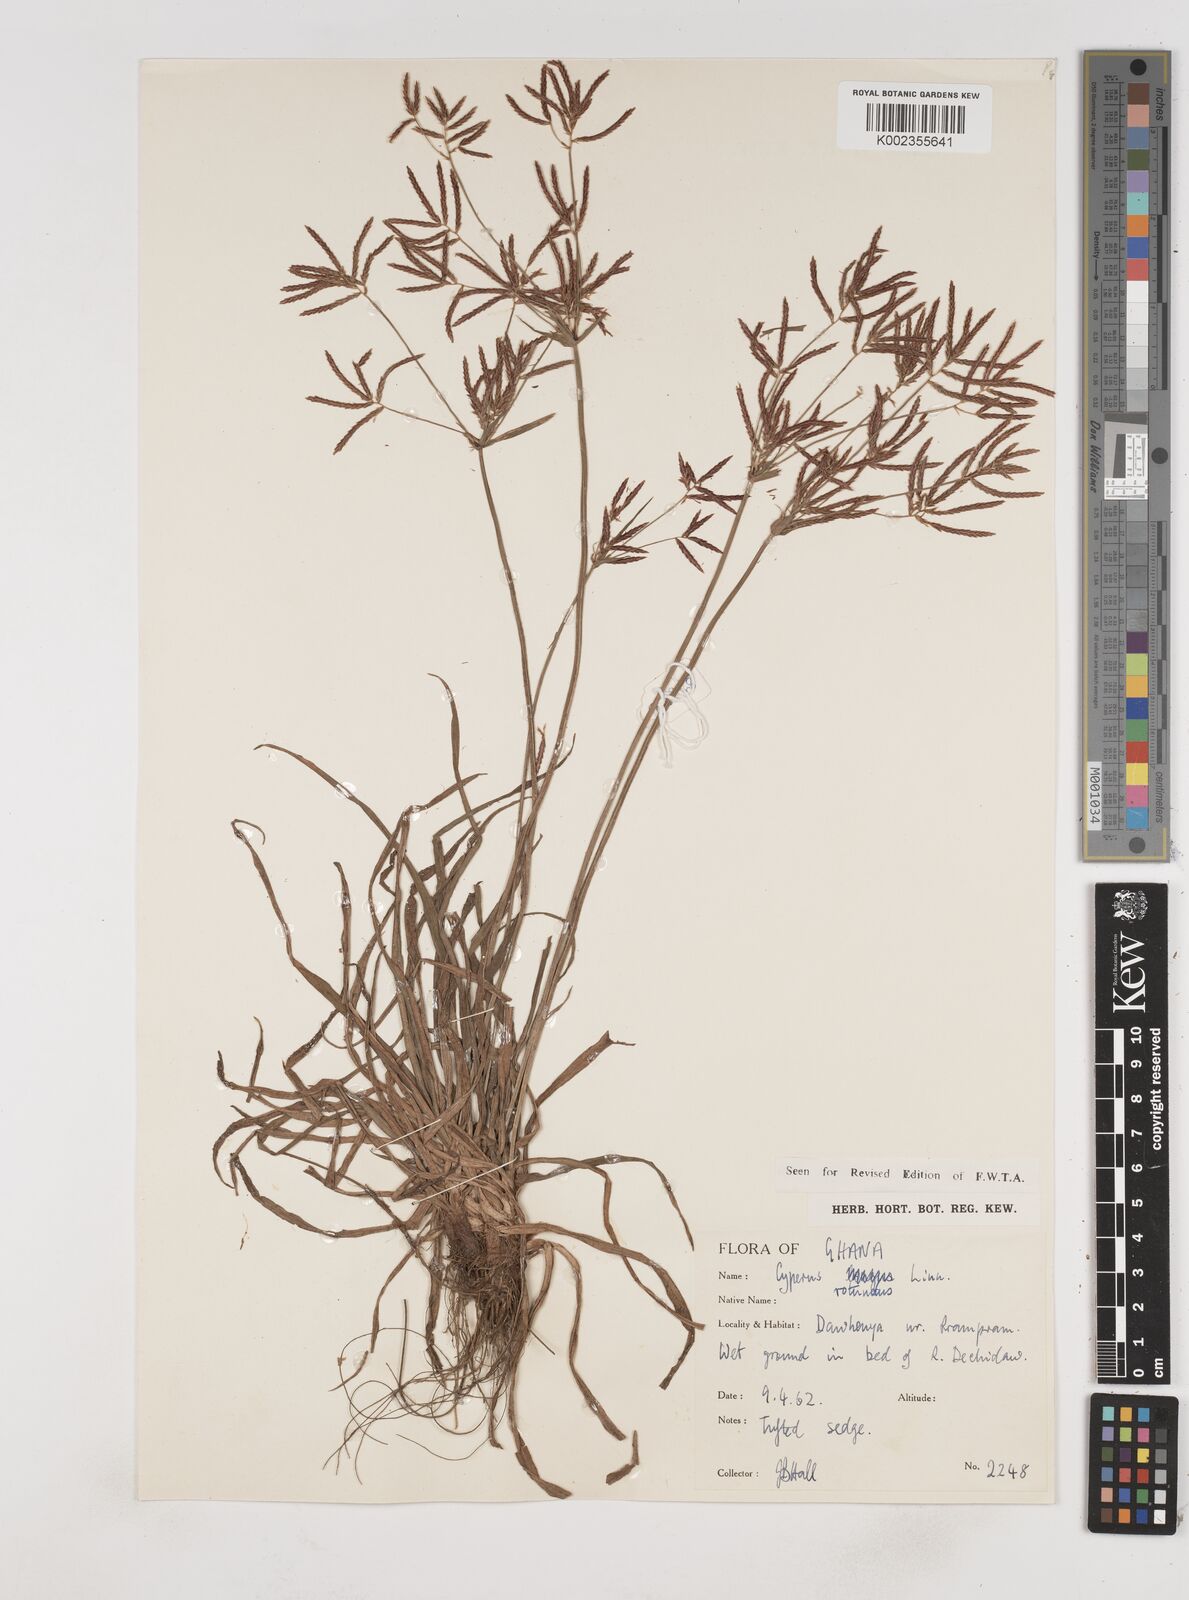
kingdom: Plantae
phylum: Tracheophyta
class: Liliopsida
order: Poales
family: Cyperaceae
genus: Cyperus
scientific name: Cyperus rotundus
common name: Nutgrass
